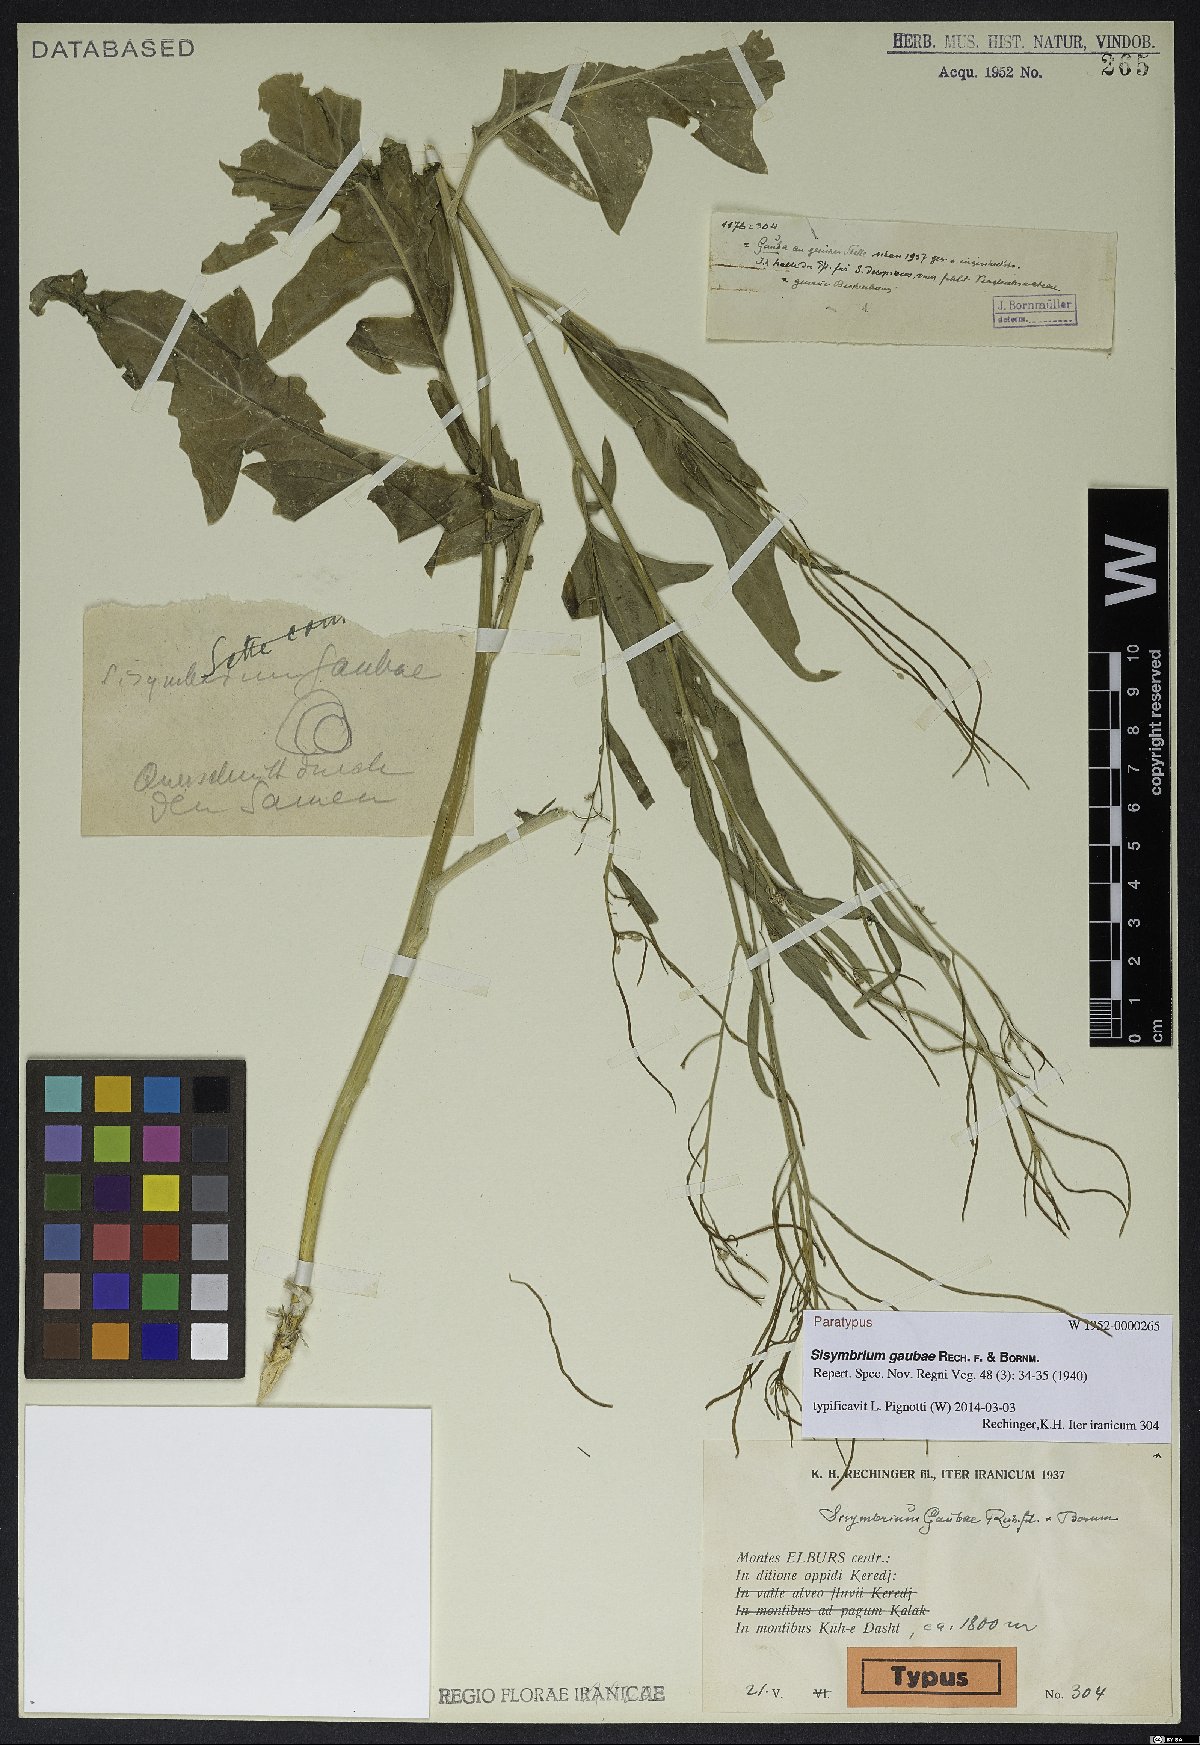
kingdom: Plantae
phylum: Tracheophyta
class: Magnoliopsida
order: Brassicales
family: Brassicaceae
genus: Sisymbrium
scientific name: Sisymbrium gaubae
